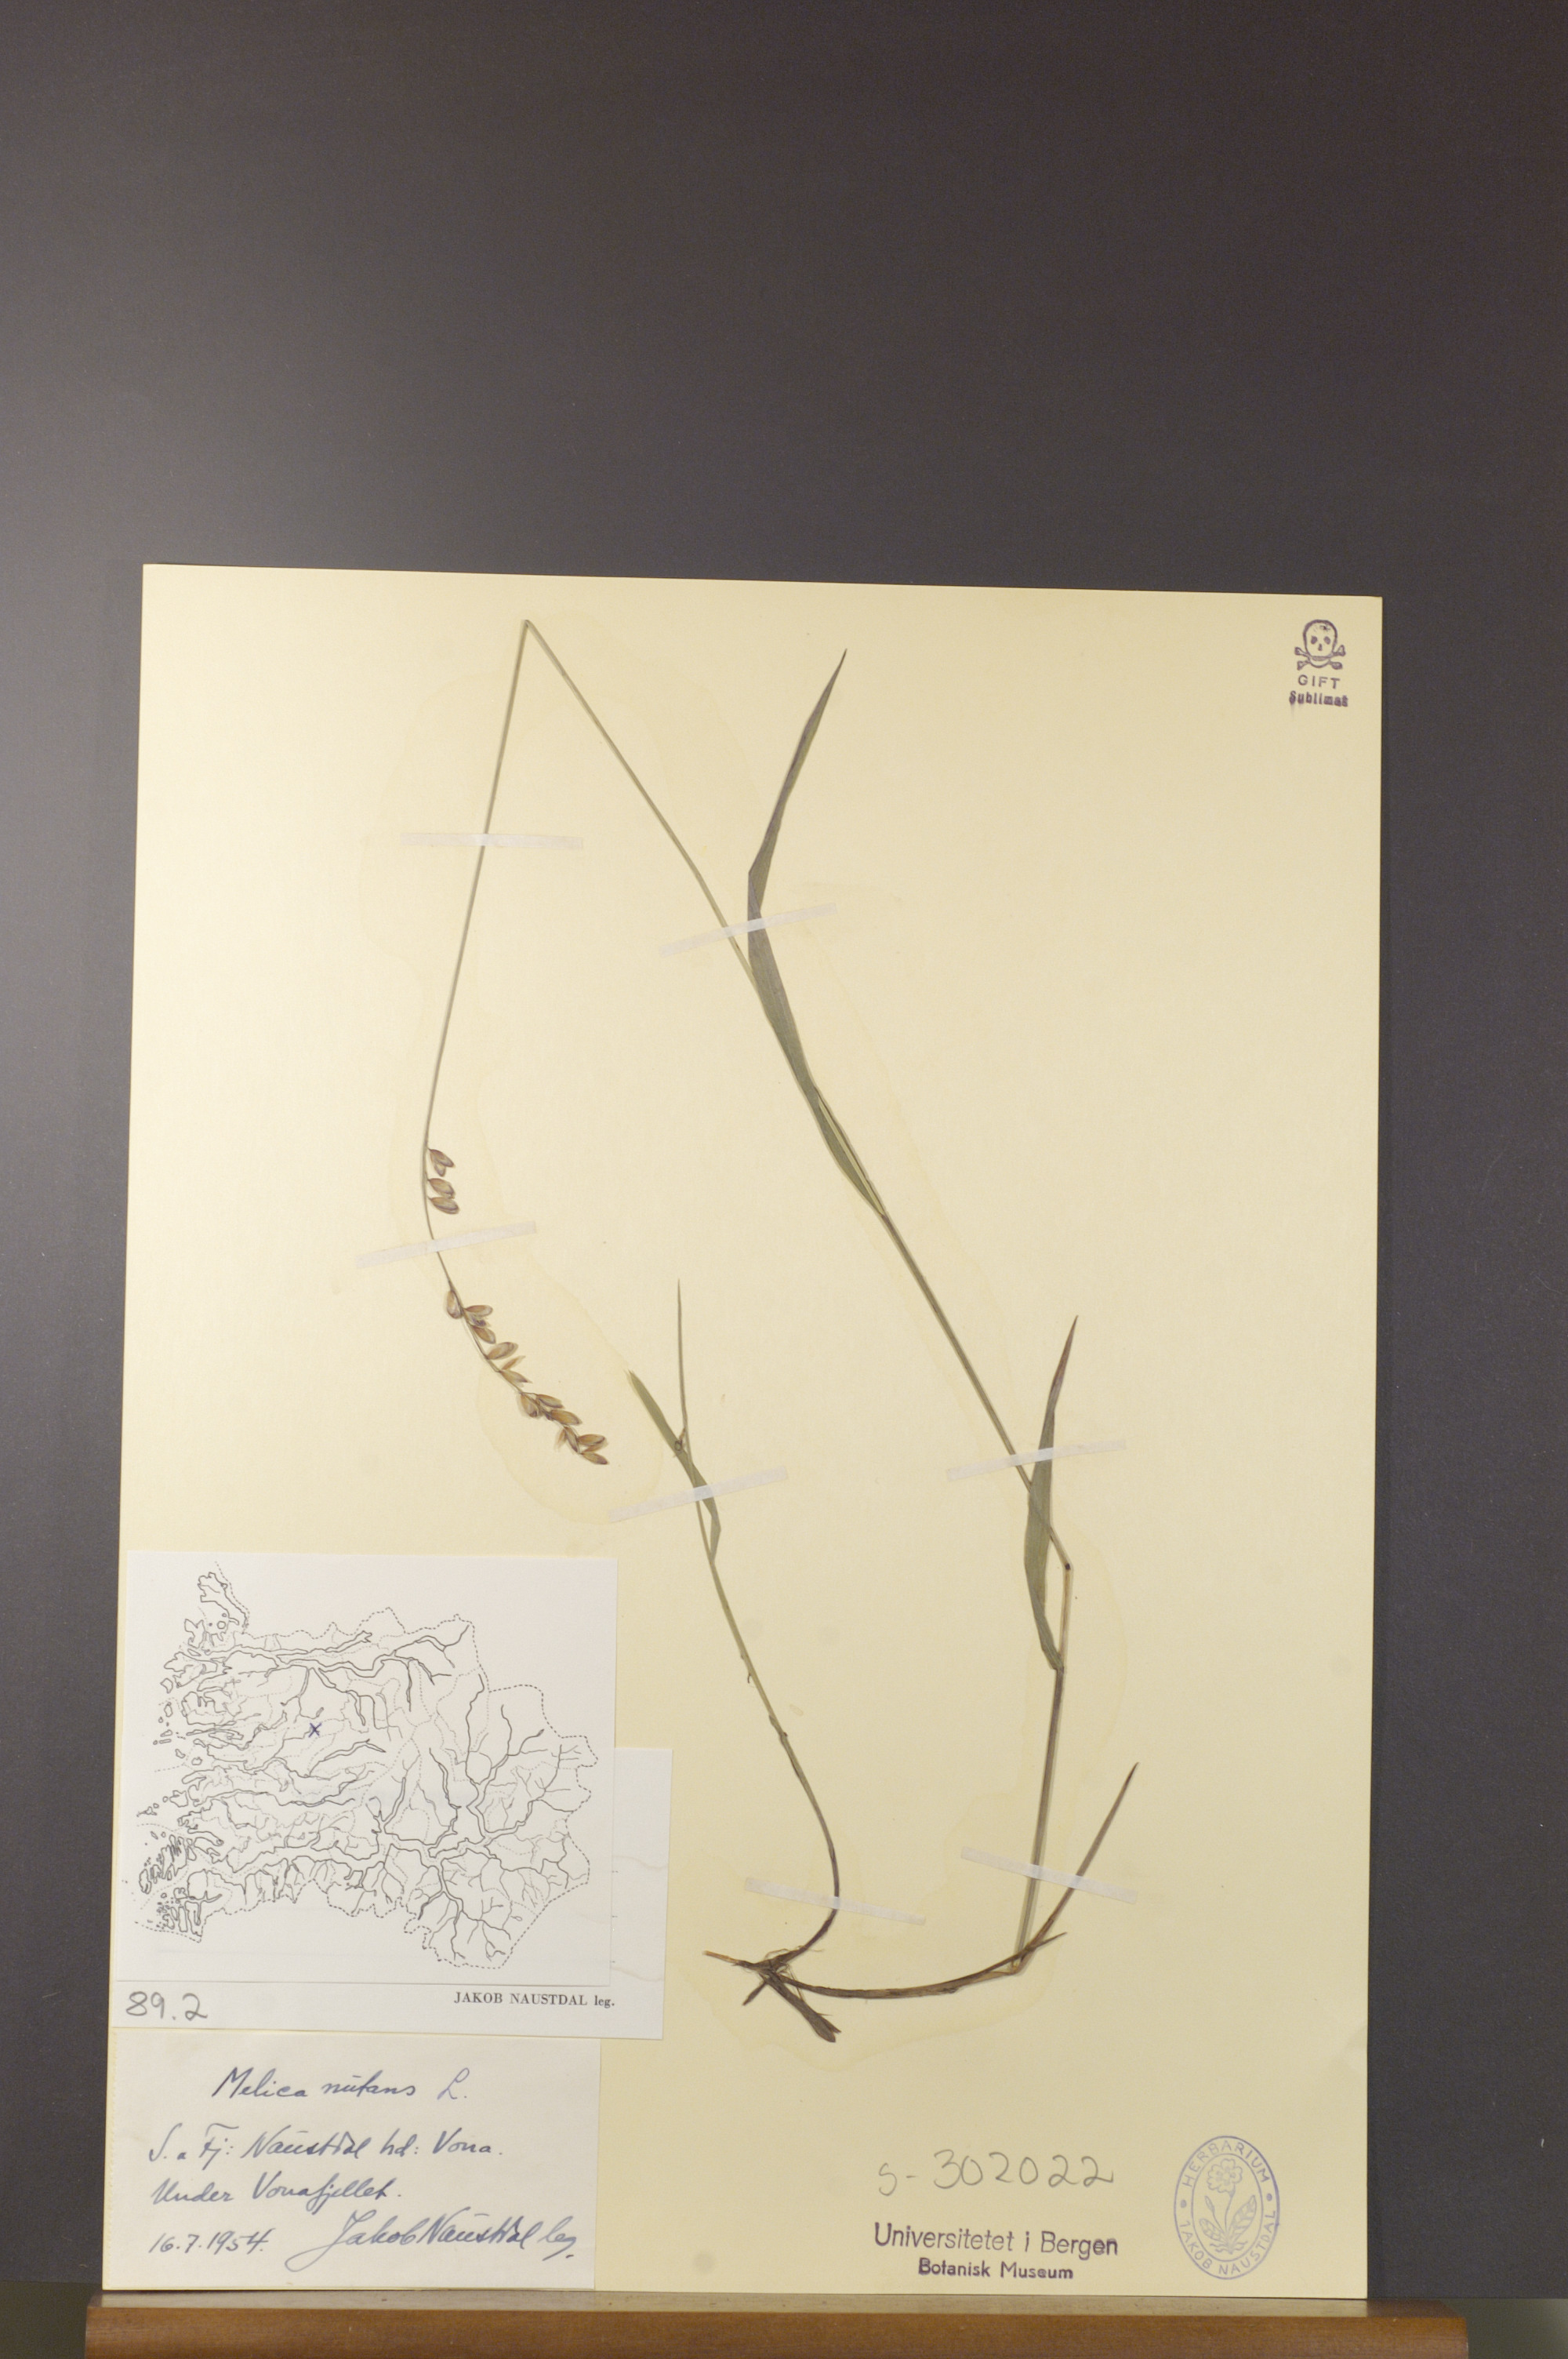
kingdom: Plantae
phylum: Tracheophyta
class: Liliopsida
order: Poales
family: Poaceae
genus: Melica
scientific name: Melica nutans
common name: Mountain melick
